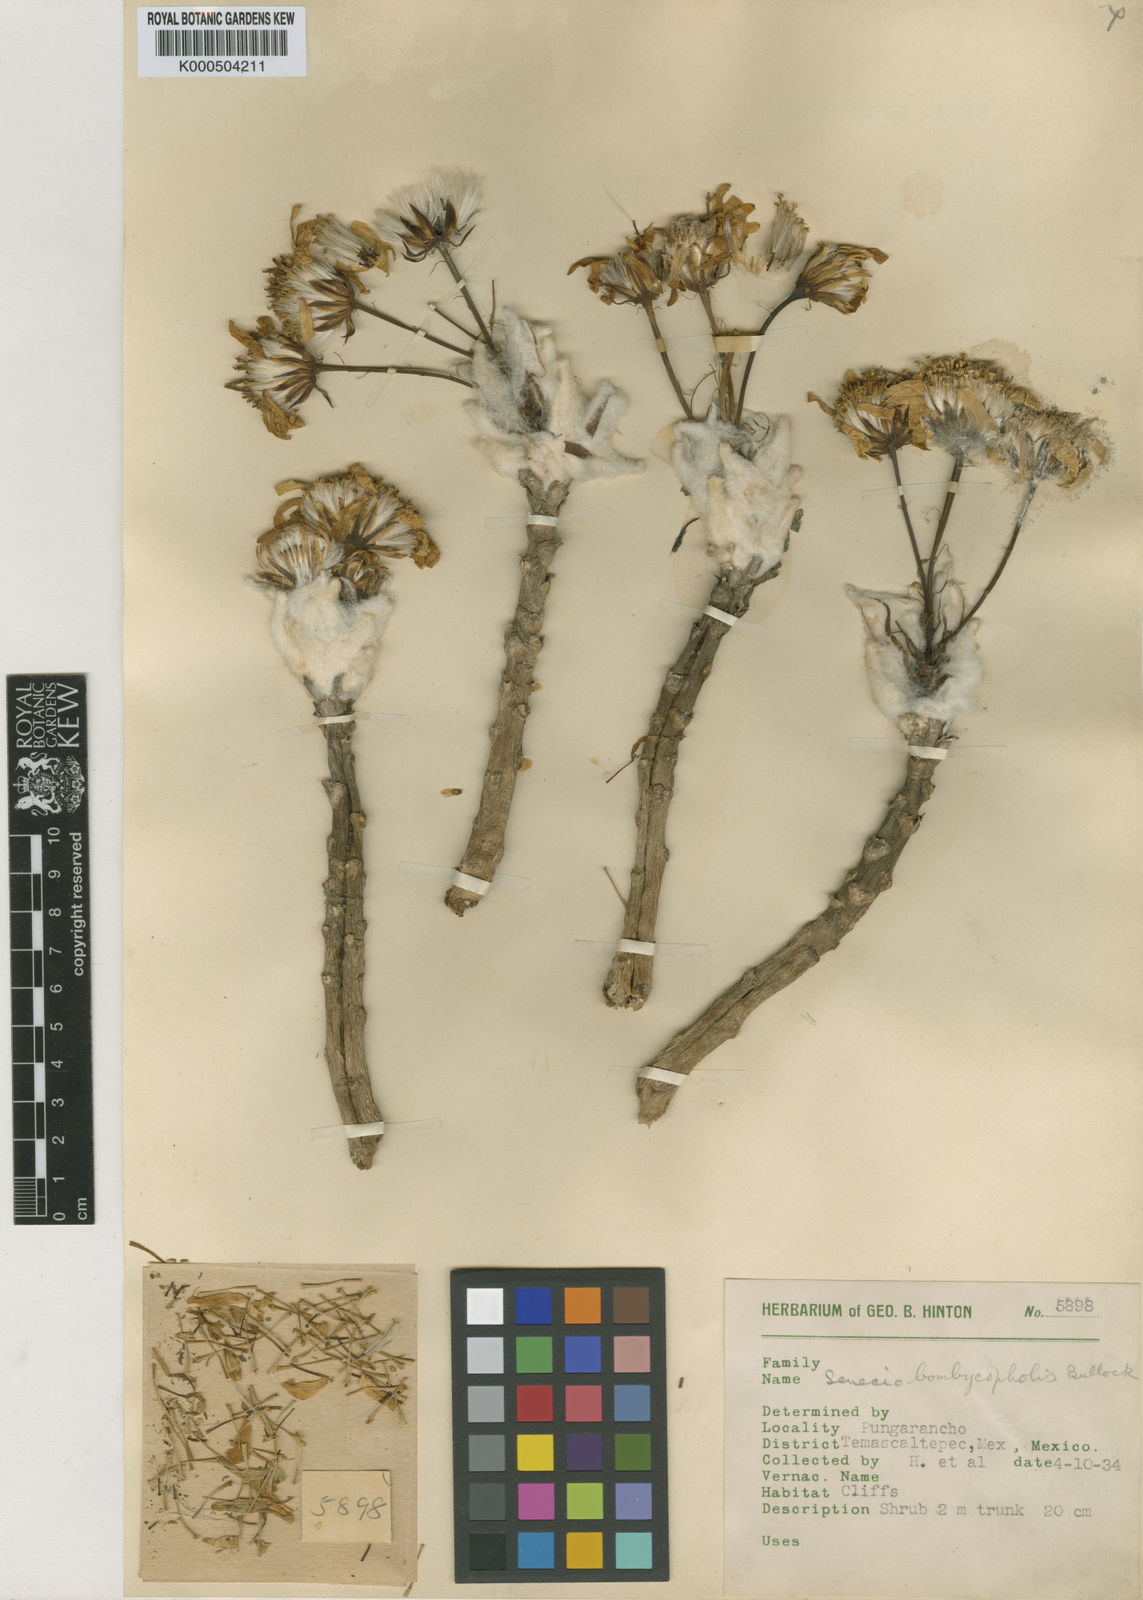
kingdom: Plantae
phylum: Tracheophyta
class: Magnoliopsida
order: Asterales
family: Asteraceae
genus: Pittocaulon
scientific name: Pittocaulon bombycophole
